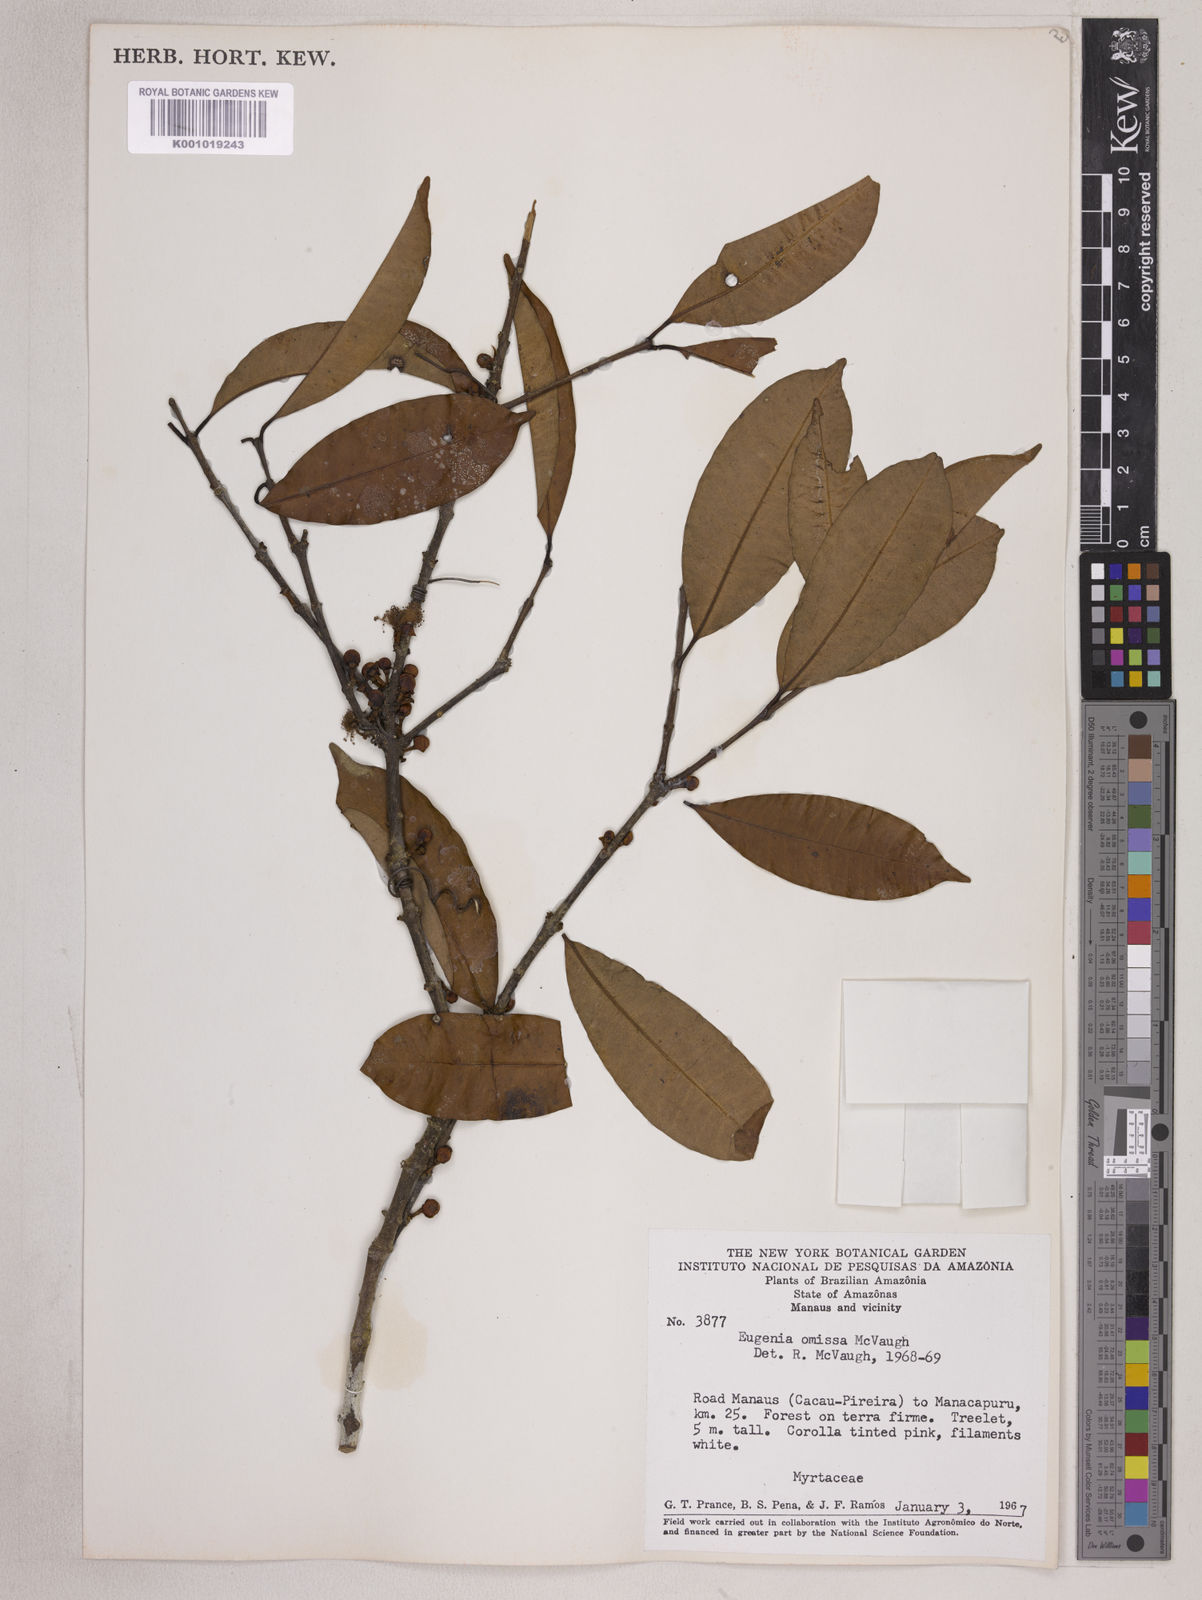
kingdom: Plantae
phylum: Tracheophyta
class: Magnoliopsida
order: Myrtales
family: Myrtaceae
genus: Eugenia
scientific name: Eugenia omissa
